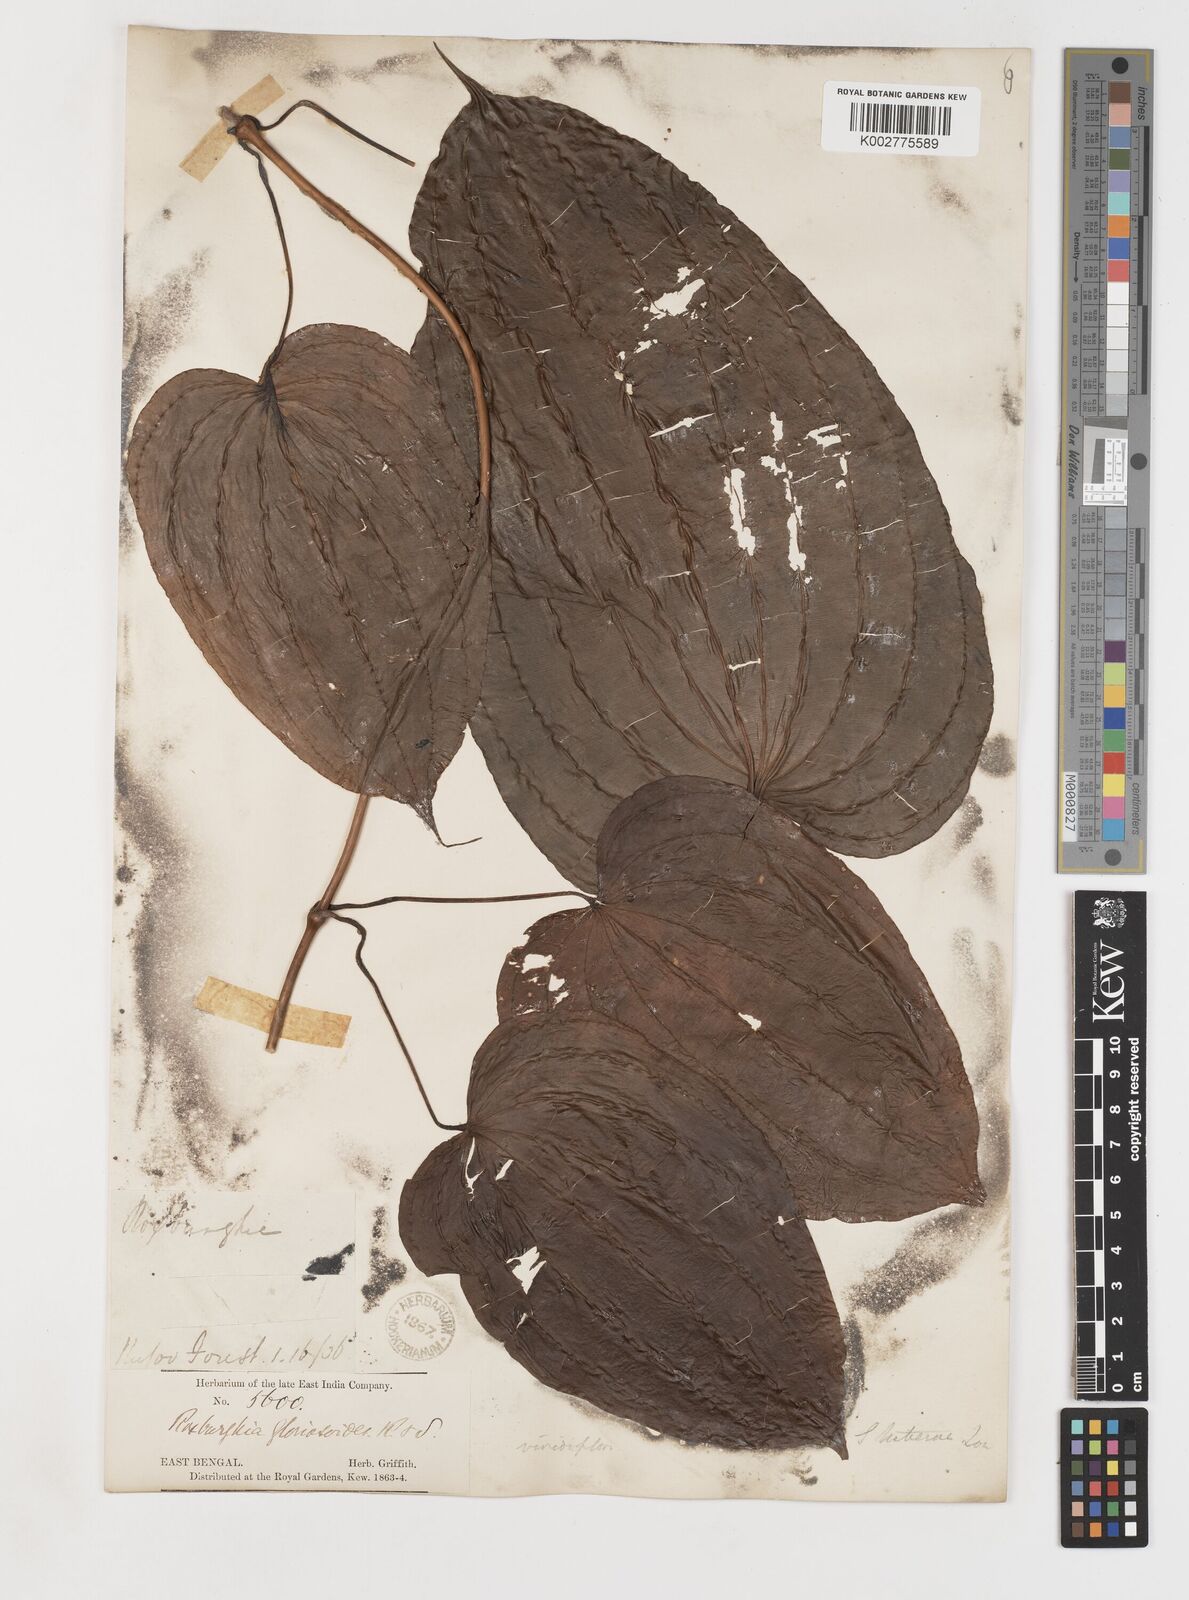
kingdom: Plantae
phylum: Tracheophyta
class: Liliopsida
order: Pandanales
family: Stemonaceae
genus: Stemona
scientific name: Stemona tuberosa
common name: Stemona
